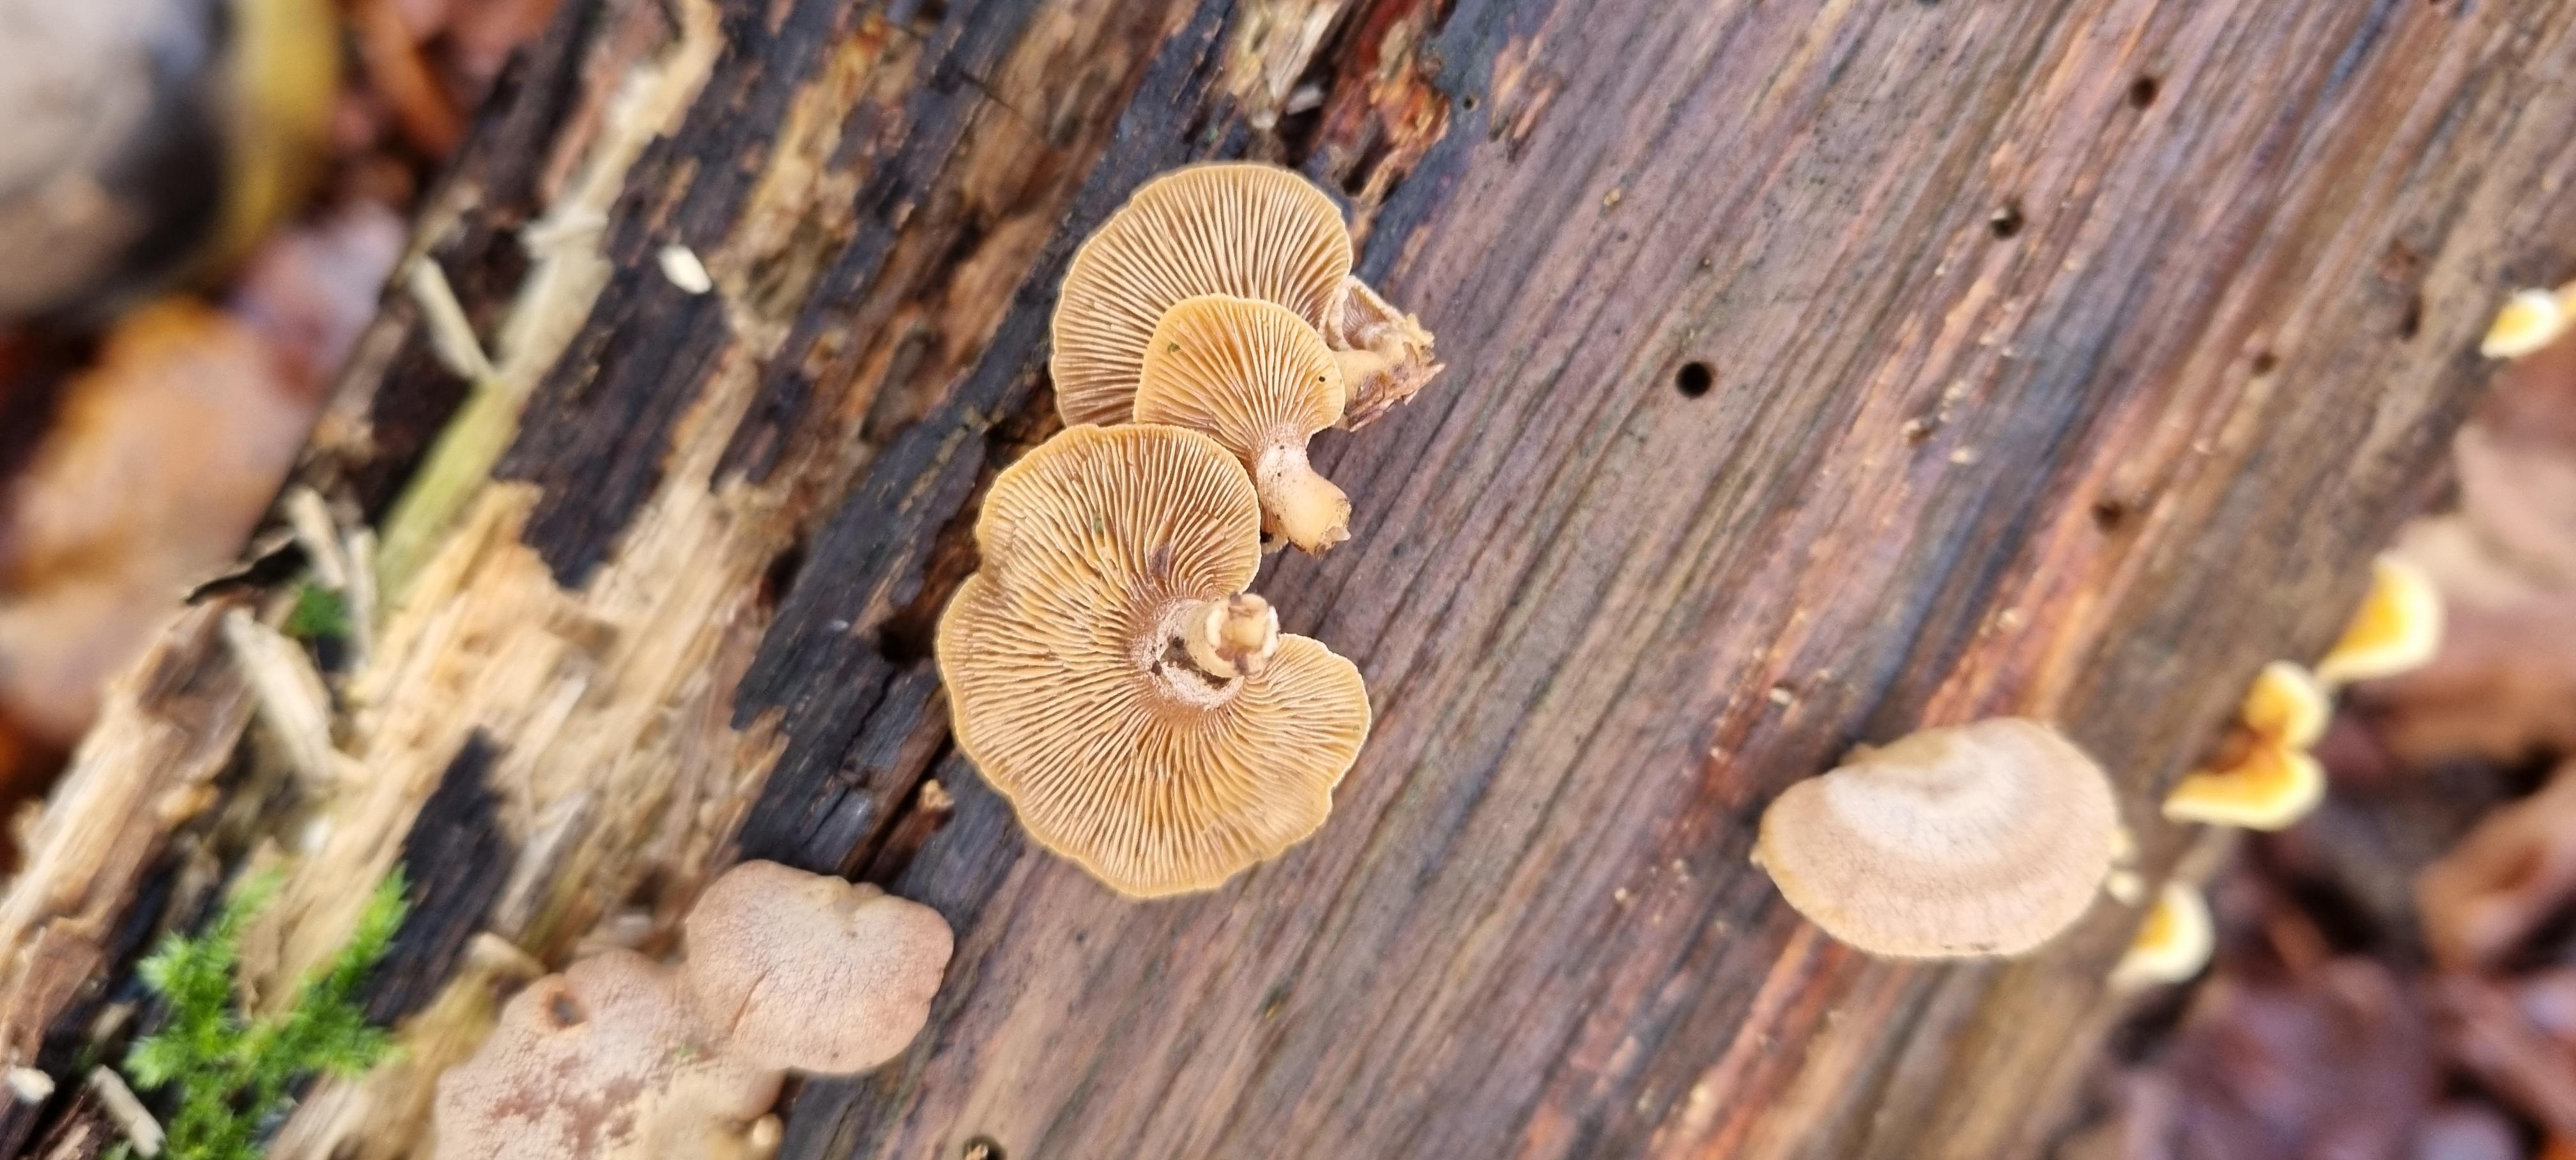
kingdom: Fungi
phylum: Basidiomycota
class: Agaricomycetes
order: Agaricales
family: Mycenaceae
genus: Panellus
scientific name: Panellus stipticus
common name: kliddet epaulethat
